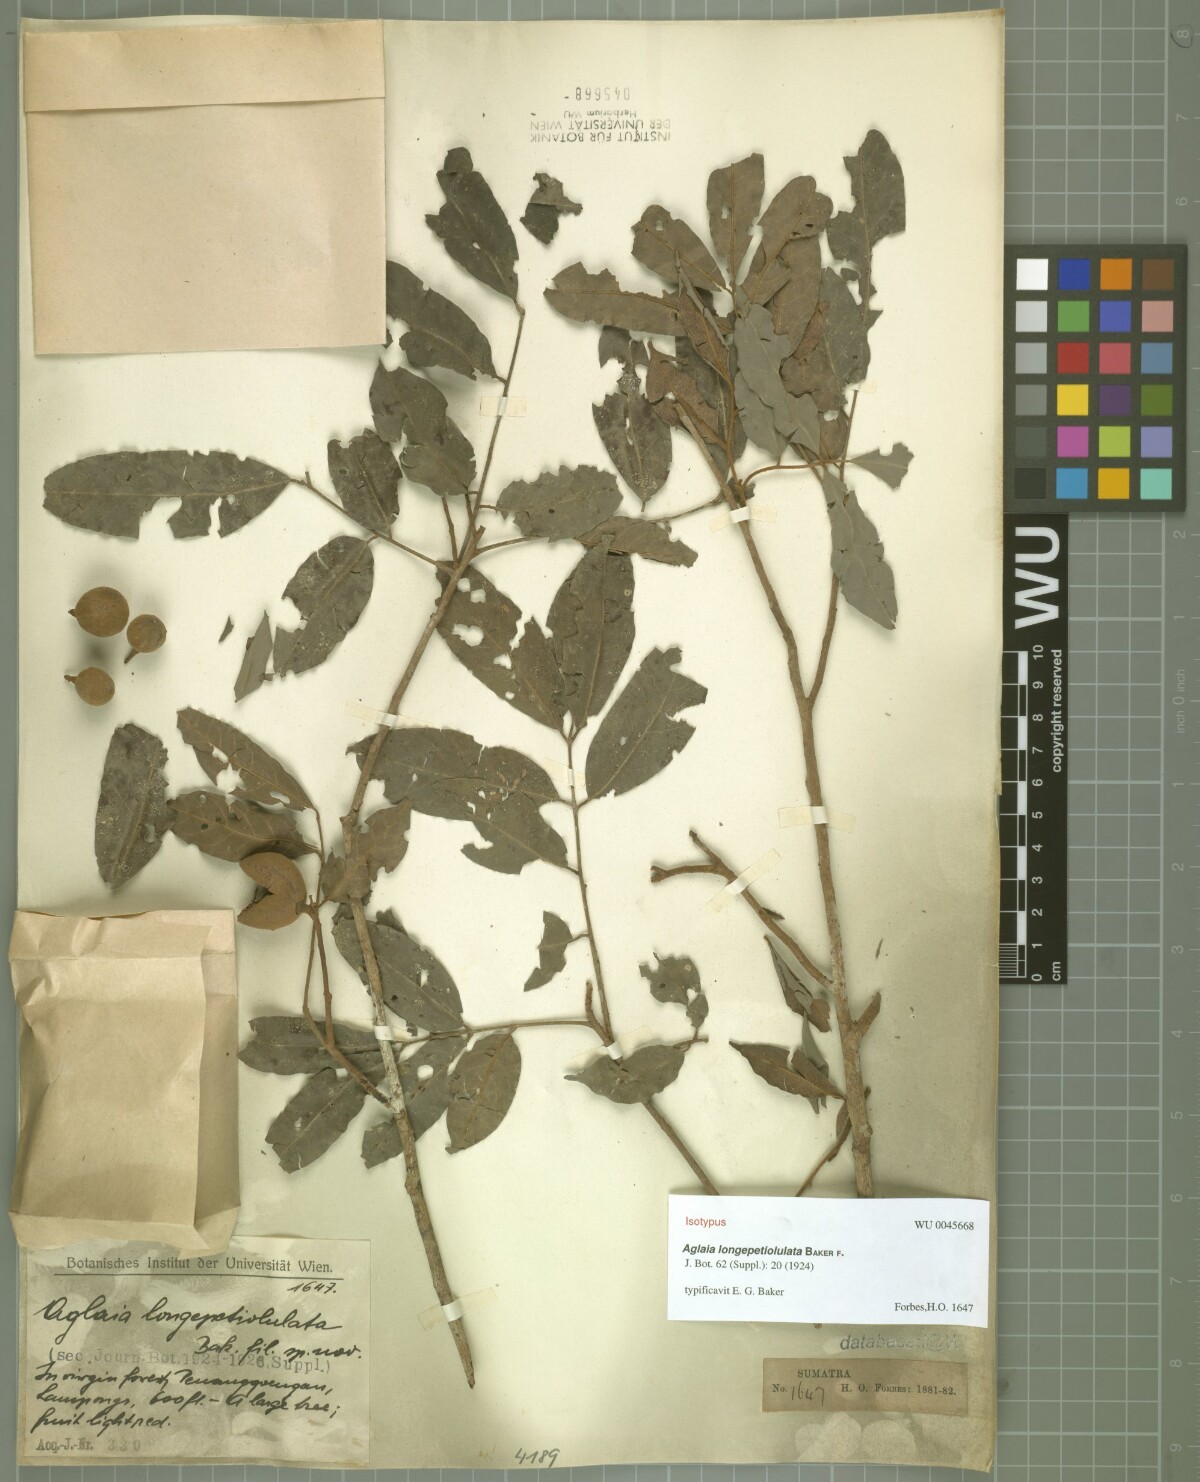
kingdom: Plantae
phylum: Tracheophyta
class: Magnoliopsida
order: Sapindales
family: Meliaceae
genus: Aglaia
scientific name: Aglaia longepetiolulata
